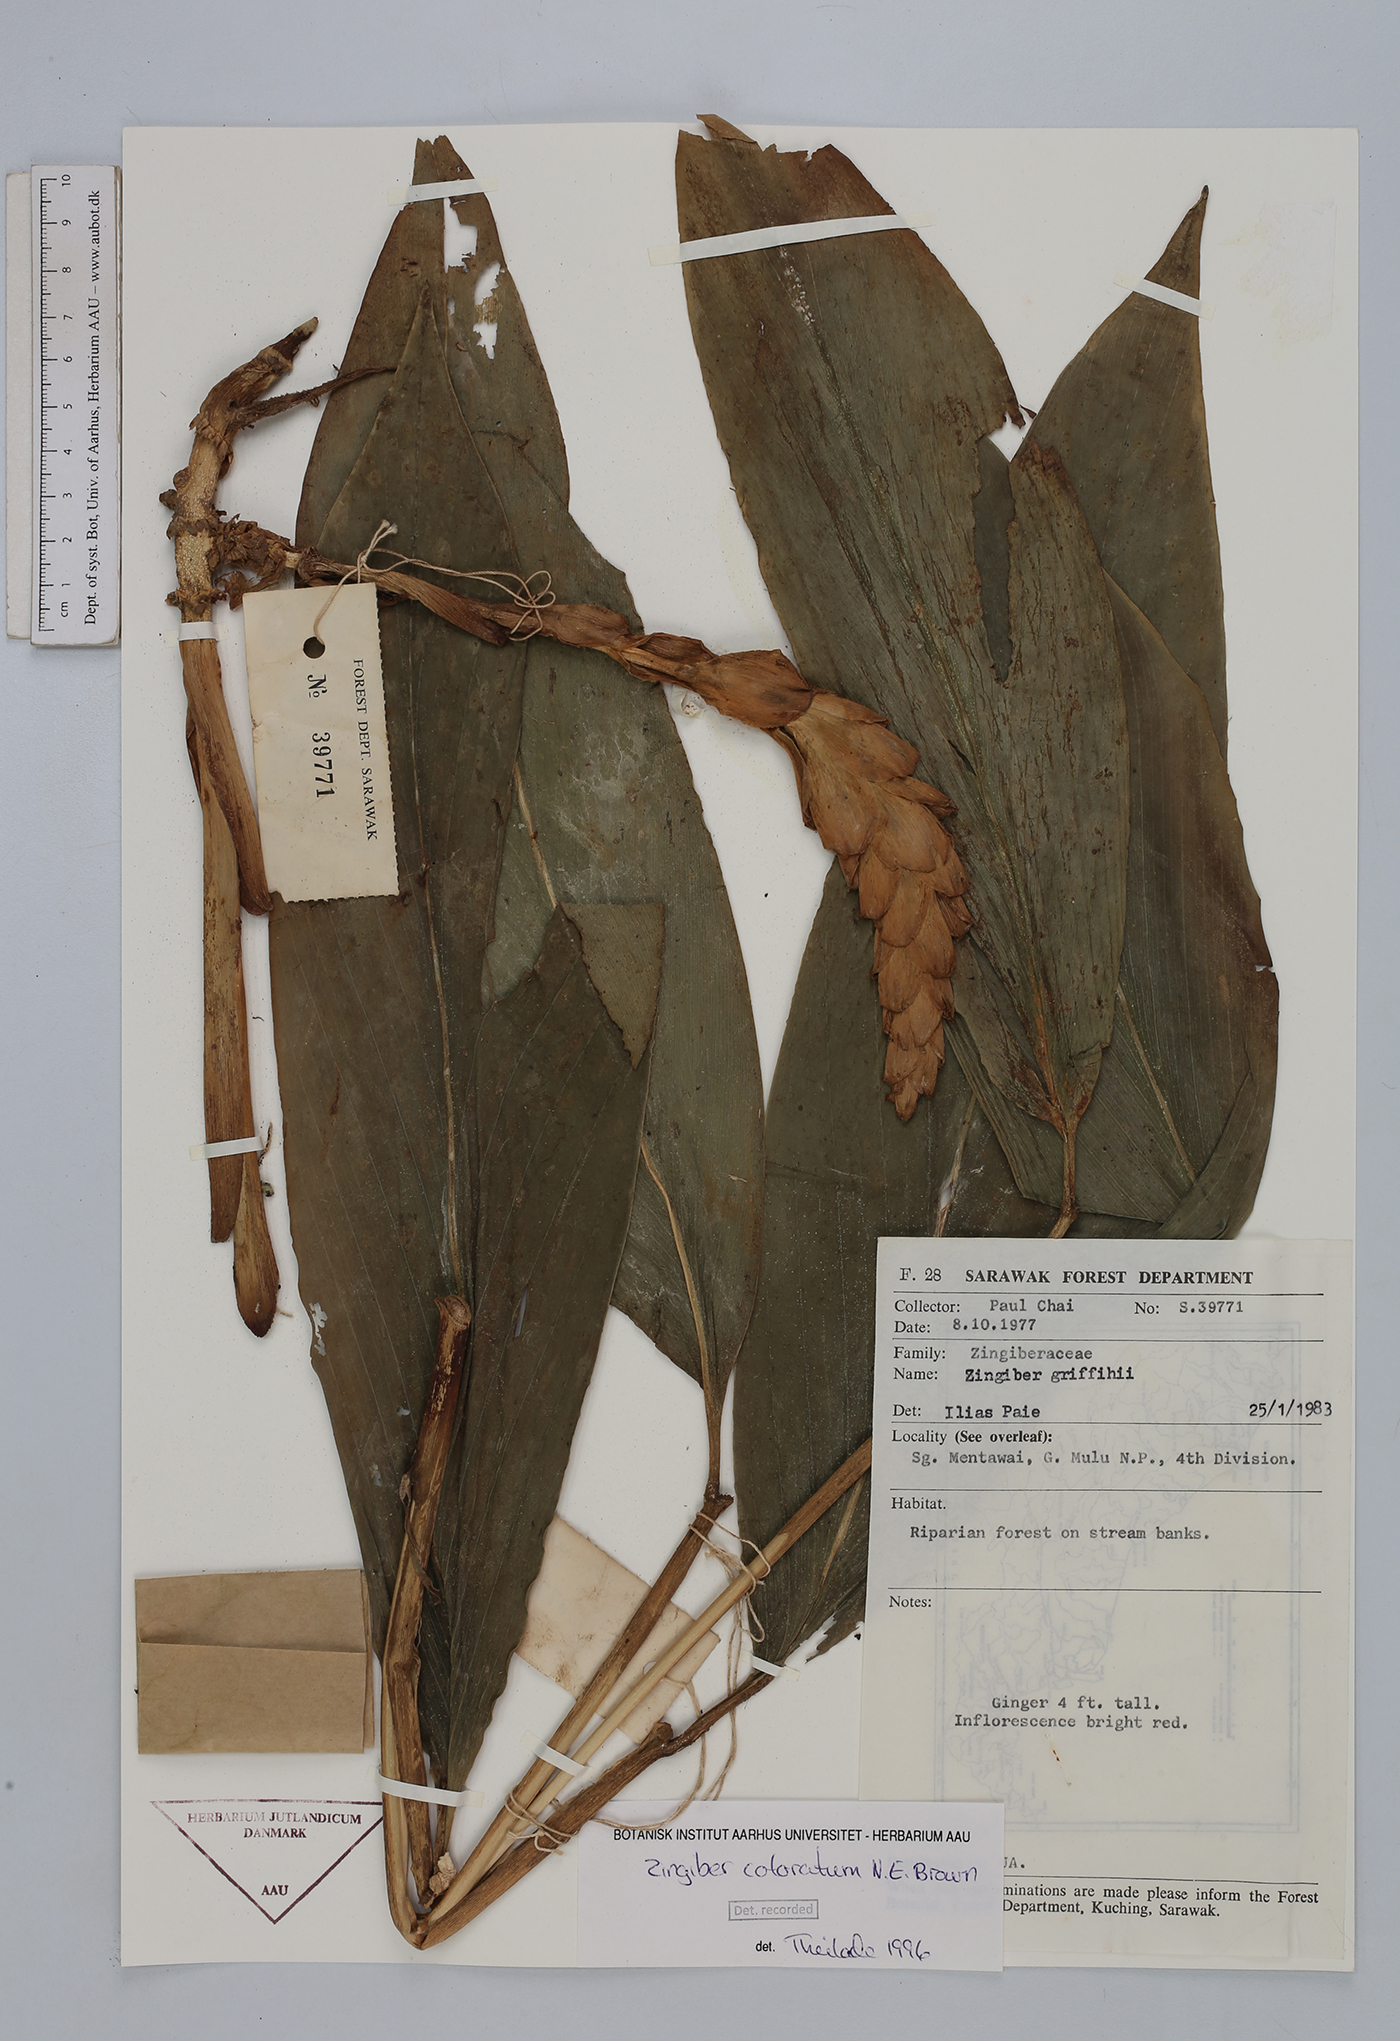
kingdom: Plantae
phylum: Tracheophyta
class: Liliopsida
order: Zingiberales
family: Zingiberaceae
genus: Zingiber
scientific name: Zingiber coloratum
